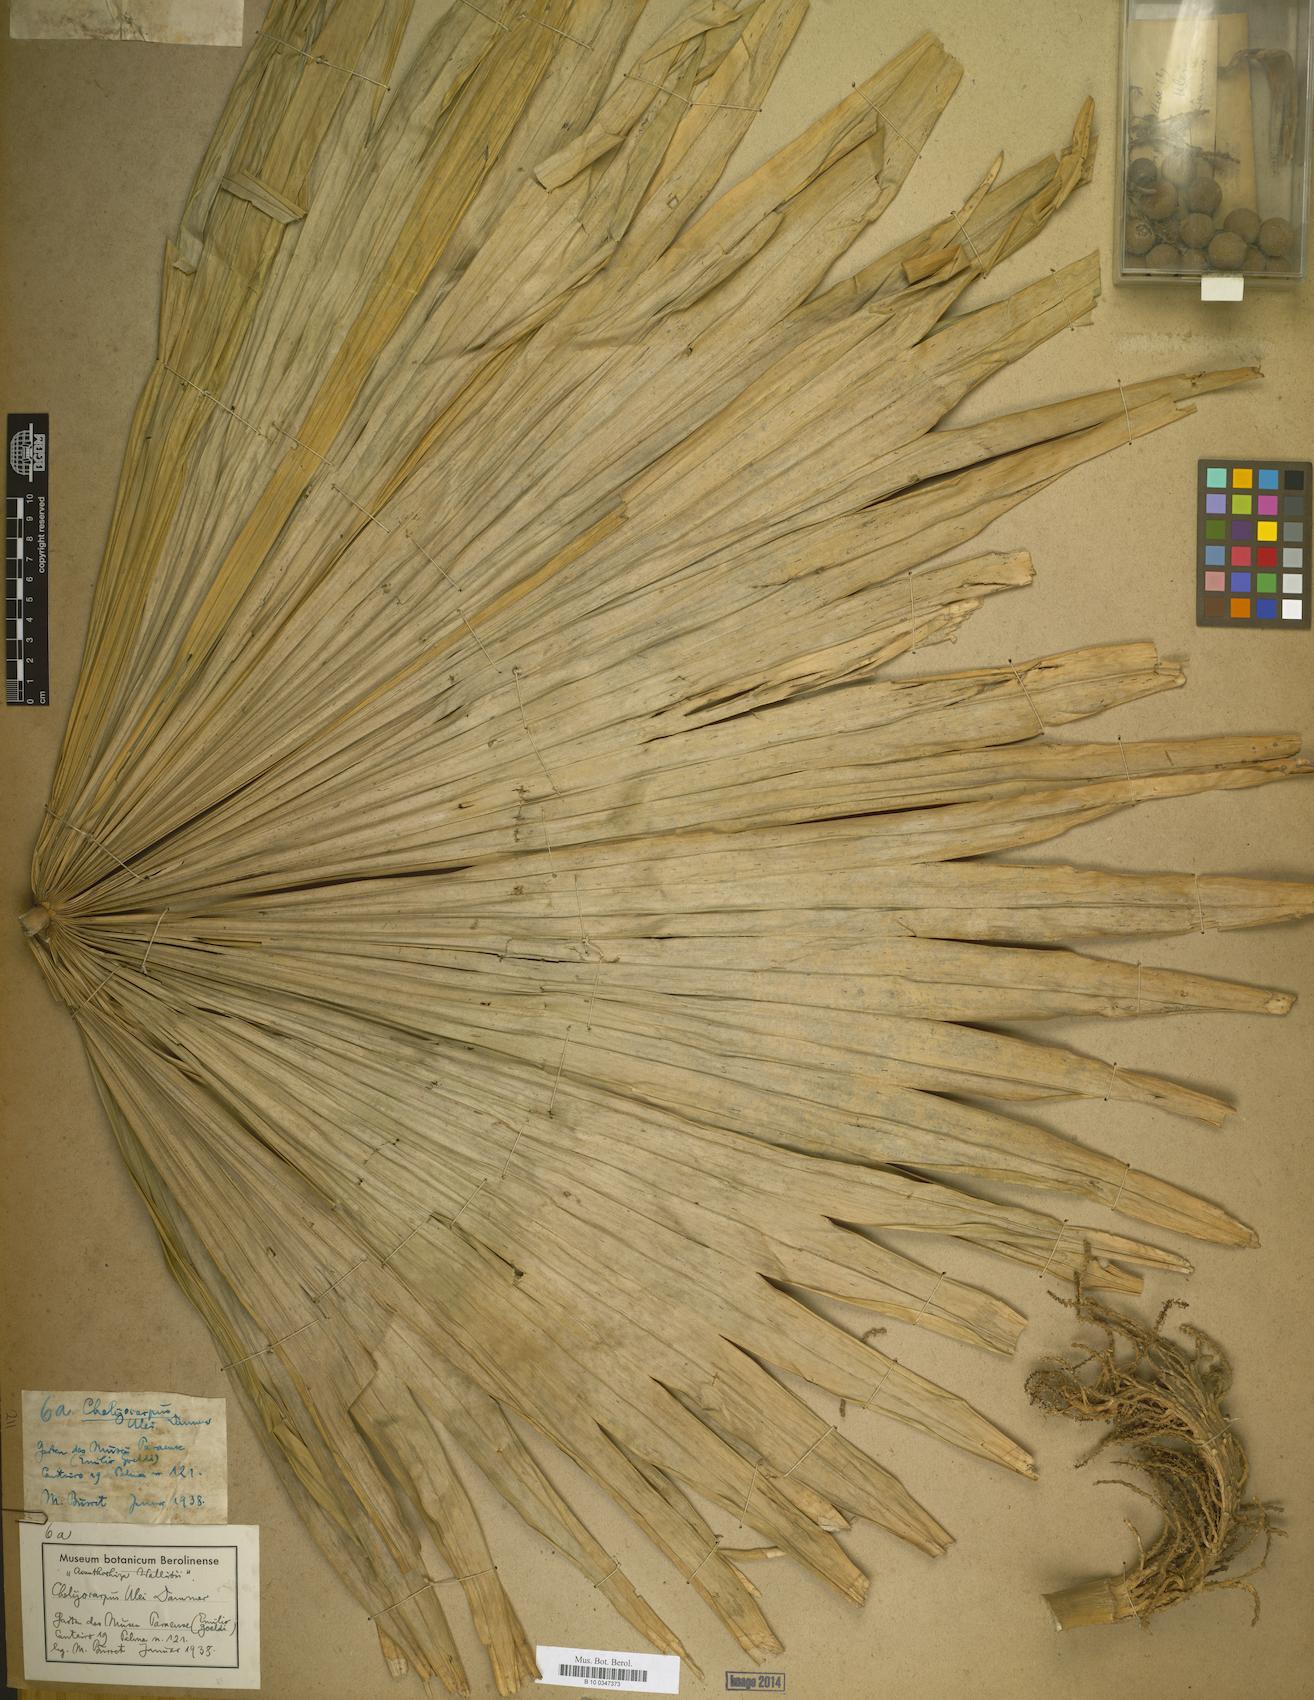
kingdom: Plantae
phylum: Tracheophyta
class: Liliopsida
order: Arecales
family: Arecaceae
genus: Chelyocarpus
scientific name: Chelyocarpus ulei
